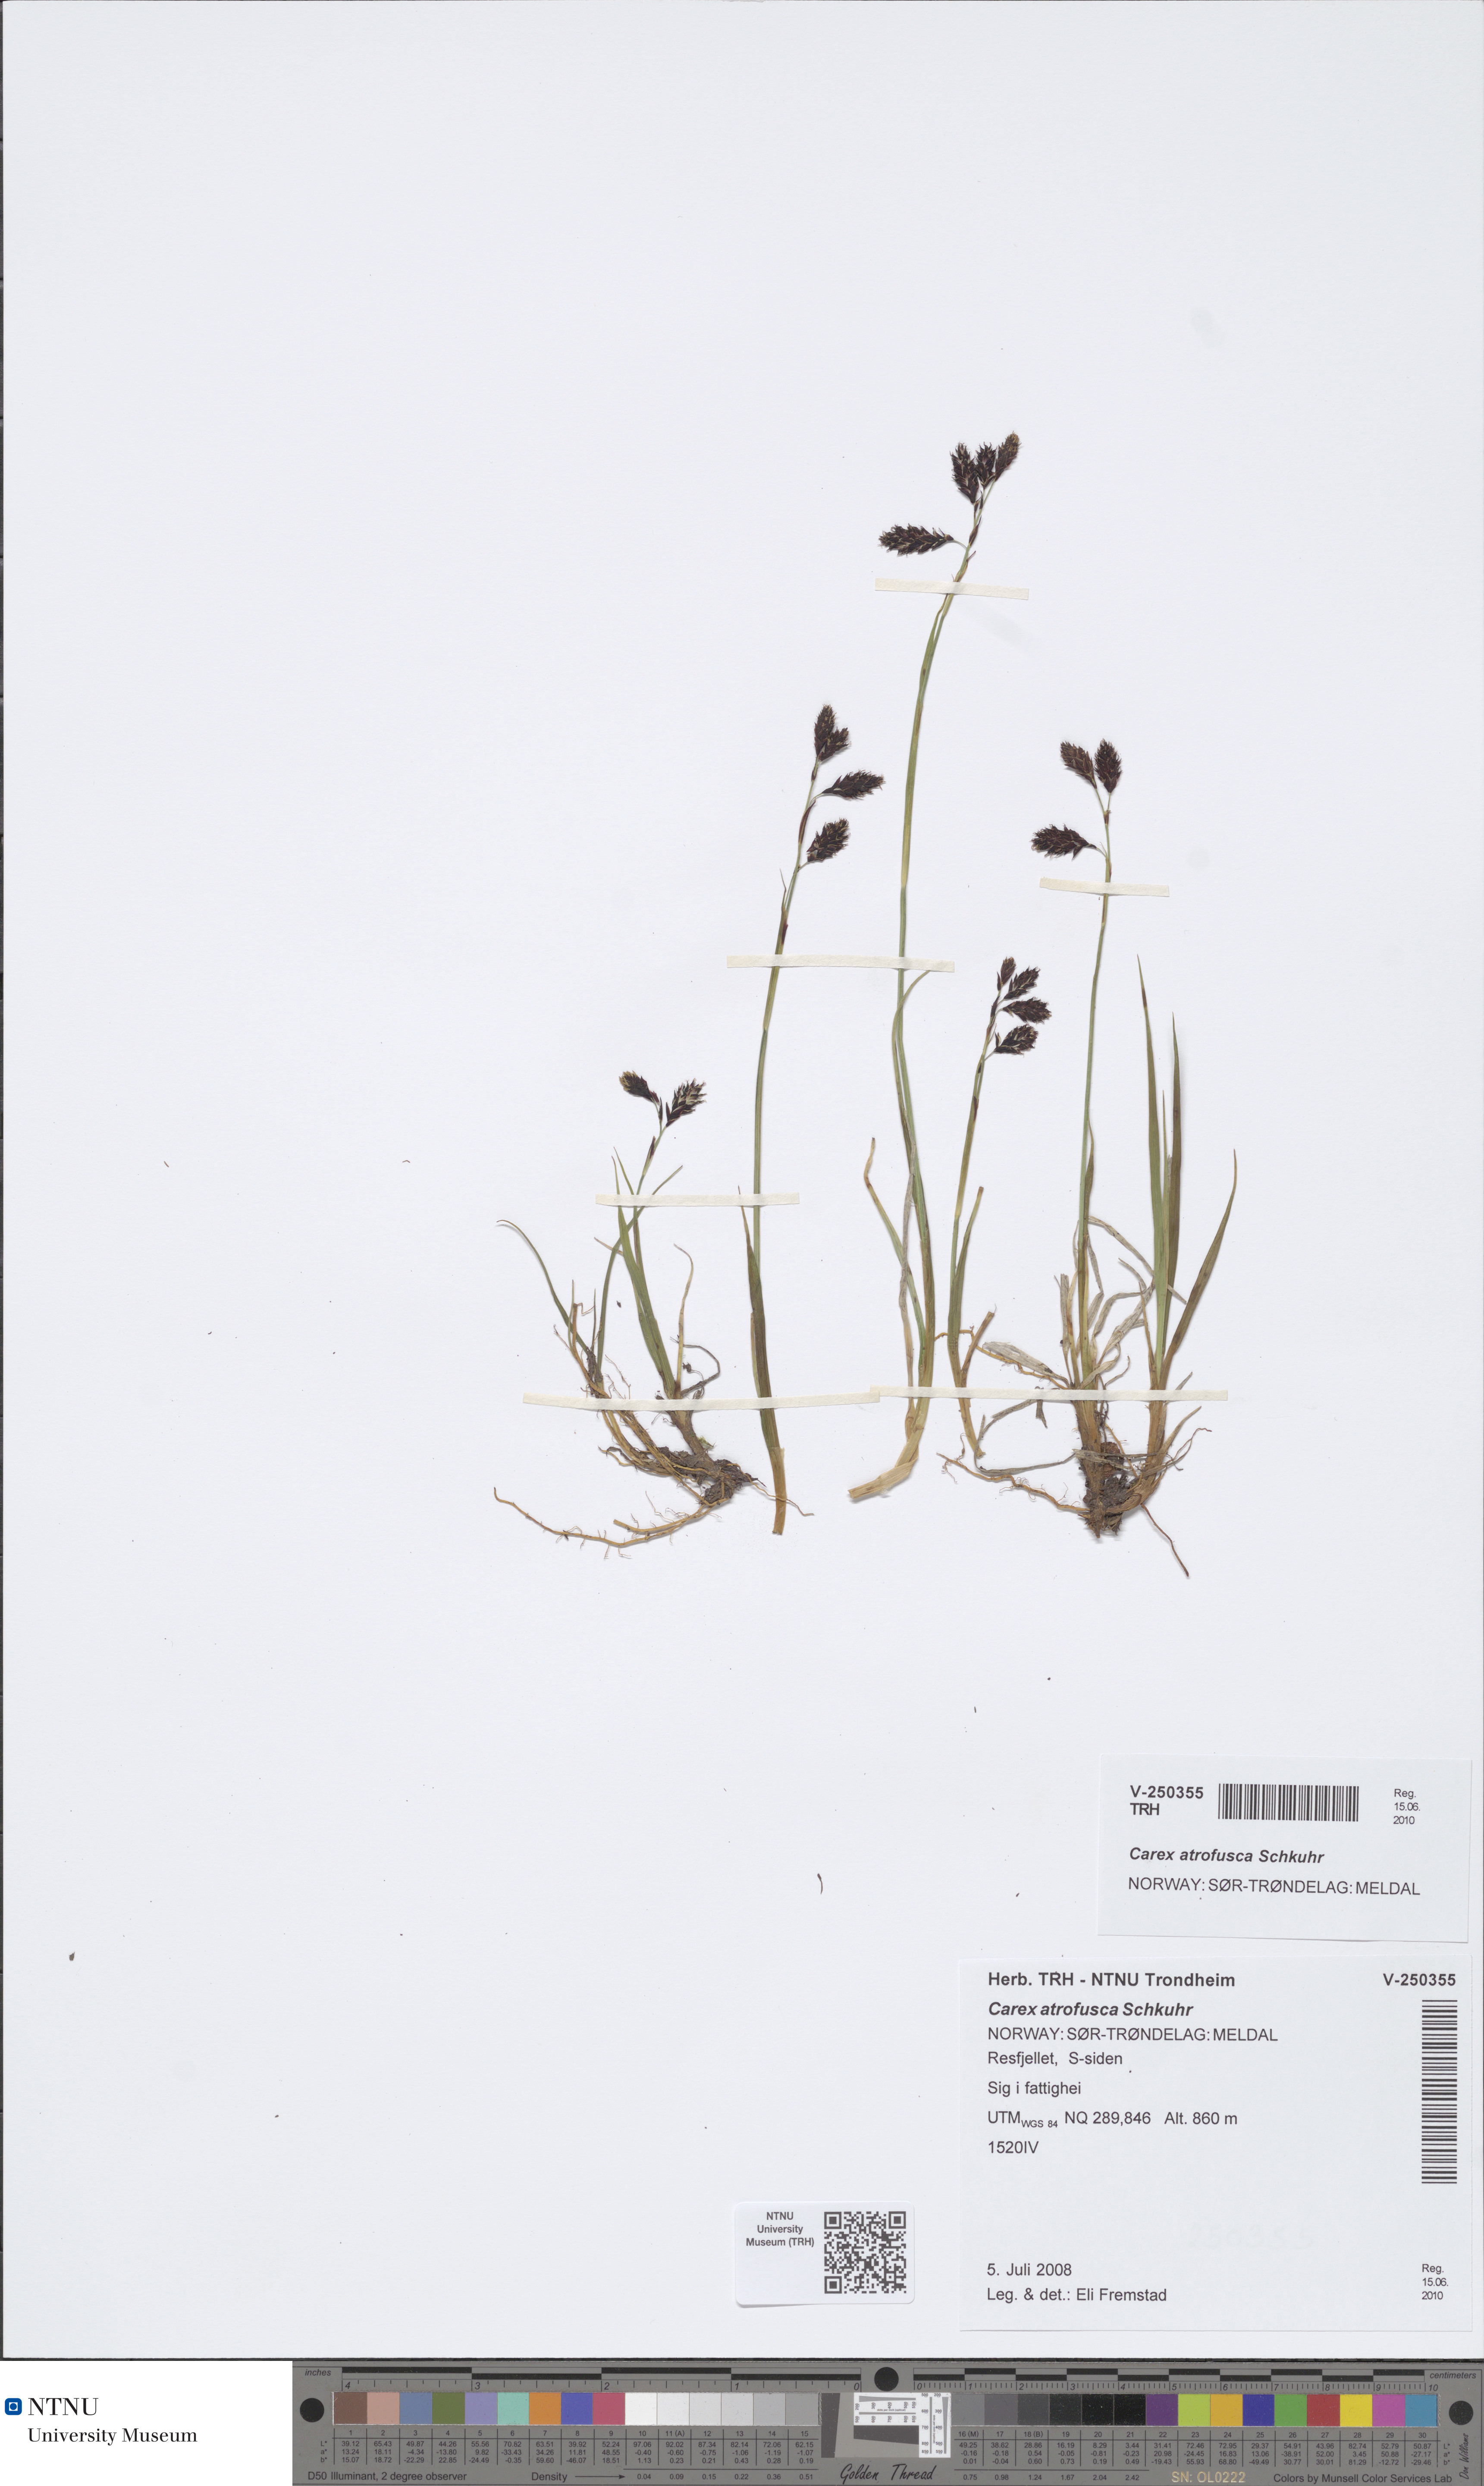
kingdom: Plantae
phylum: Tracheophyta
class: Liliopsida
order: Poales
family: Cyperaceae
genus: Carex
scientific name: Carex atrofusca
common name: Scorched alpine-sedge
